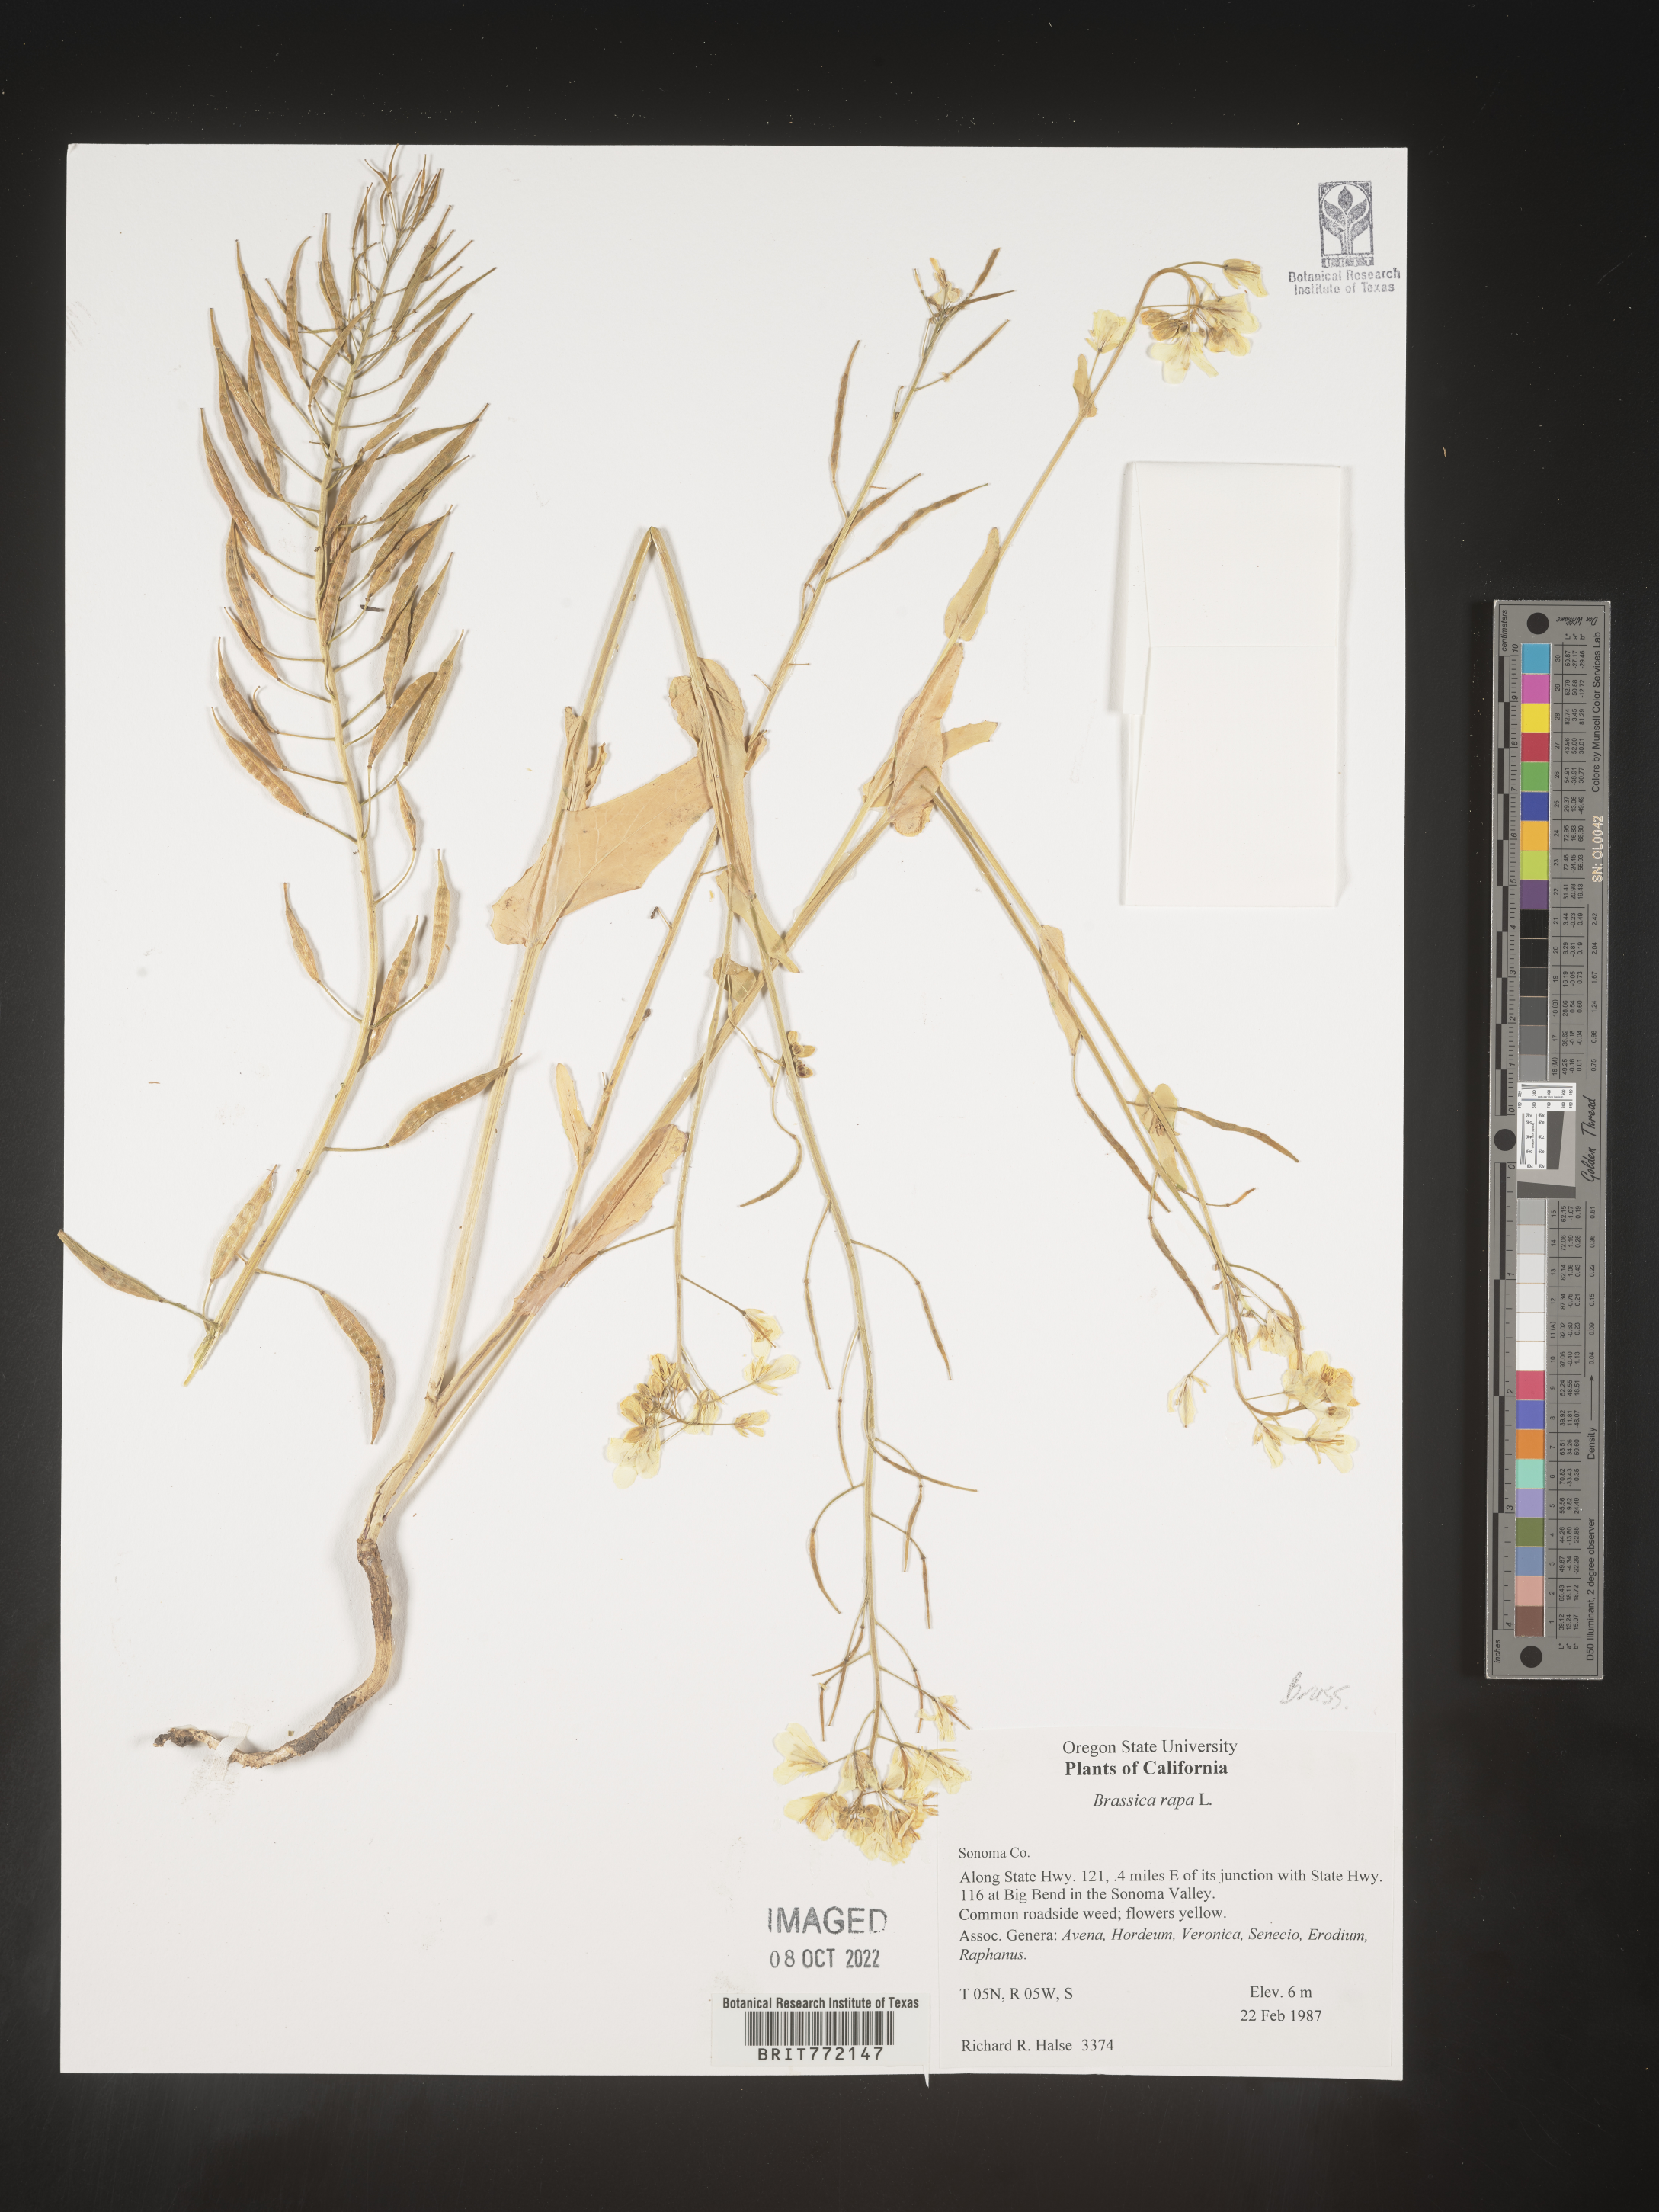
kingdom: Plantae
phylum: Tracheophyta
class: Magnoliopsida
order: Brassicales
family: Brassicaceae
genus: Brassica
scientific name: Brassica rapa
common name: Field mustard
